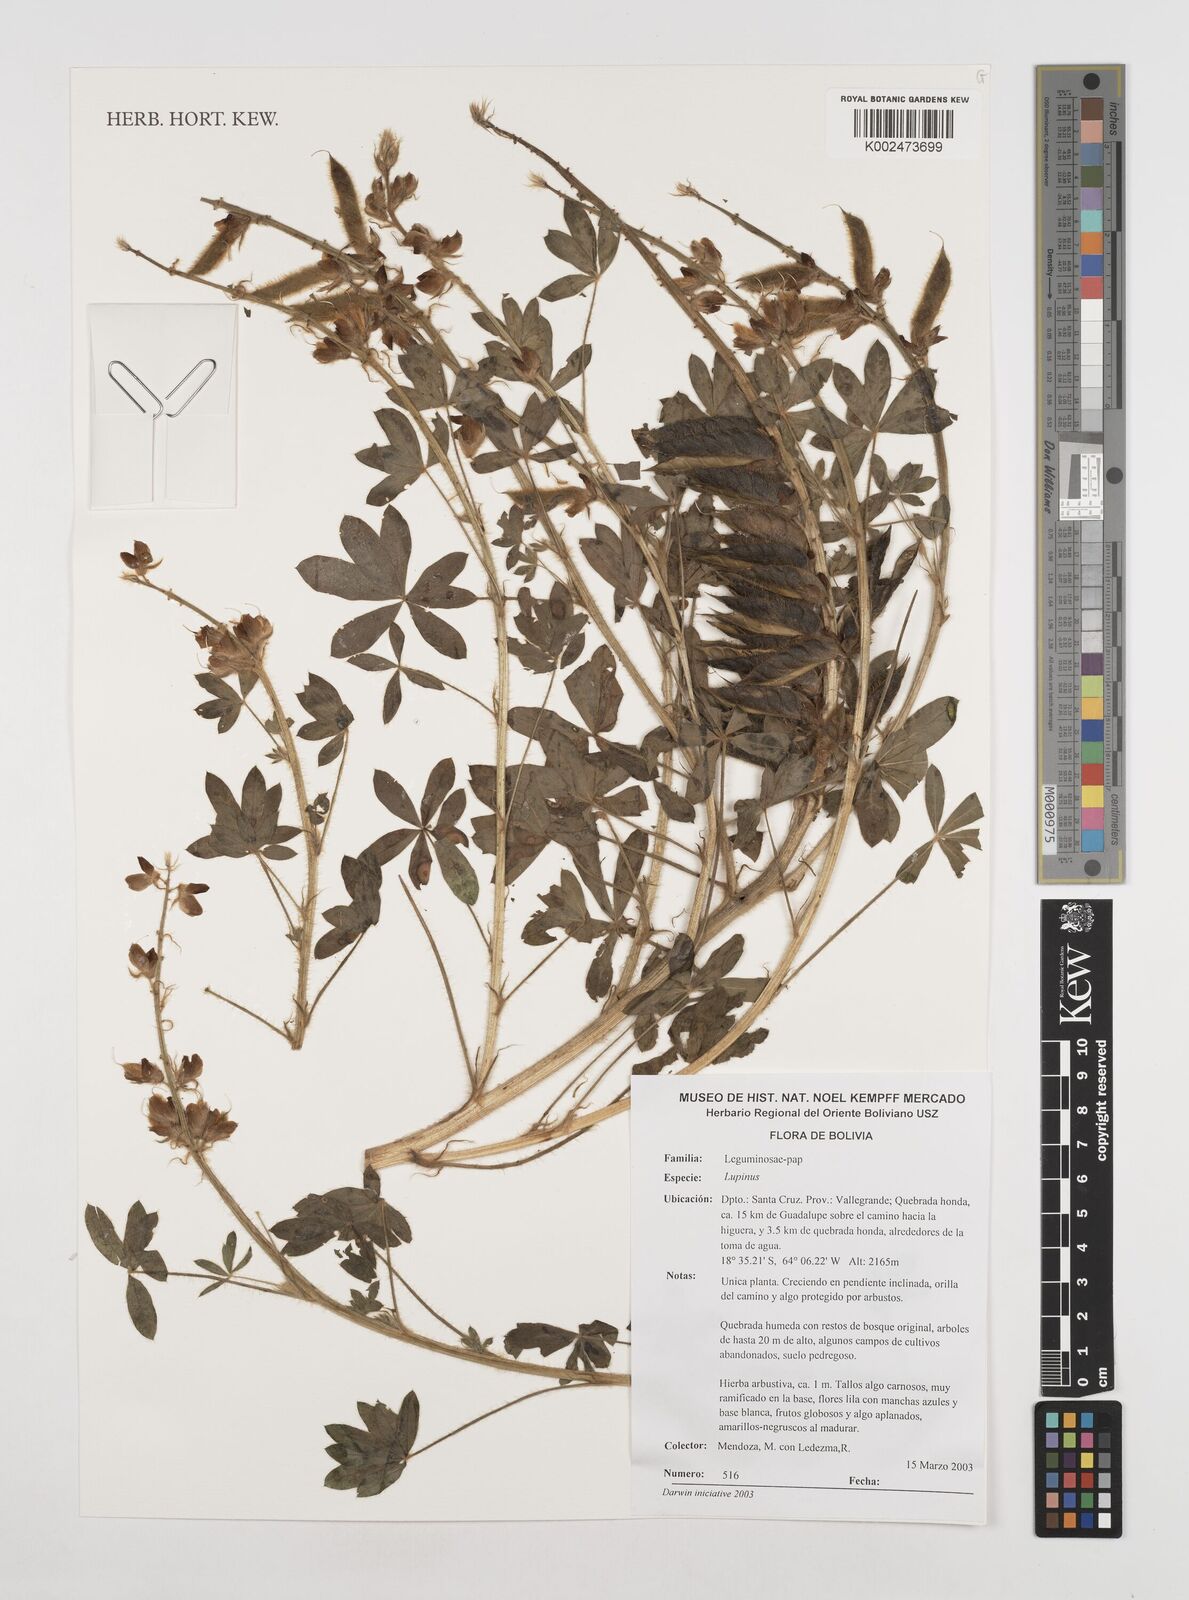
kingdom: Plantae
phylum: Tracheophyta
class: Magnoliopsida
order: Fabales
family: Fabaceae
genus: Lupinus
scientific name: Lupinus
